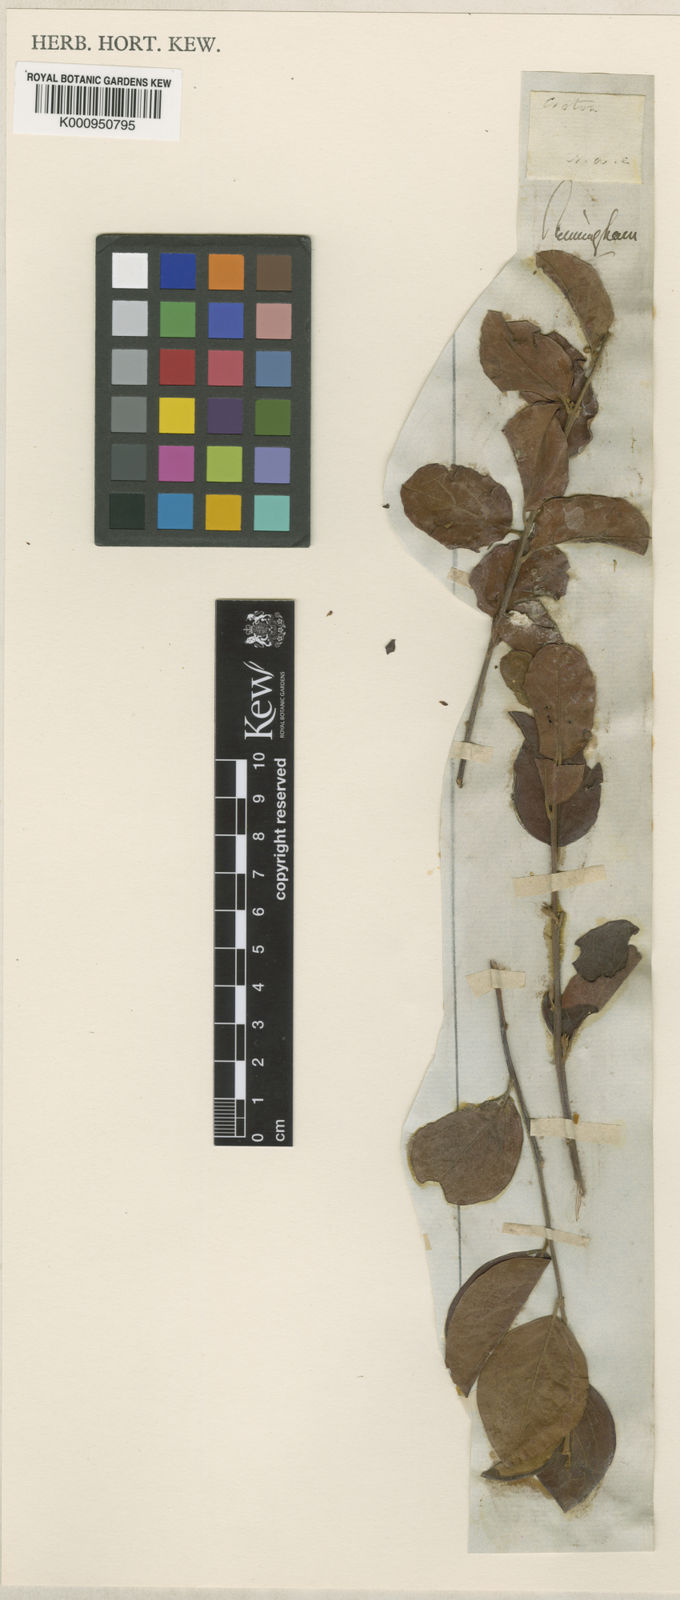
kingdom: Plantae
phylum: Tracheophyta
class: Magnoliopsida
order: Malpighiales
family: Picrodendraceae
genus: Petalostigma
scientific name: Petalostigma quadriloculare
